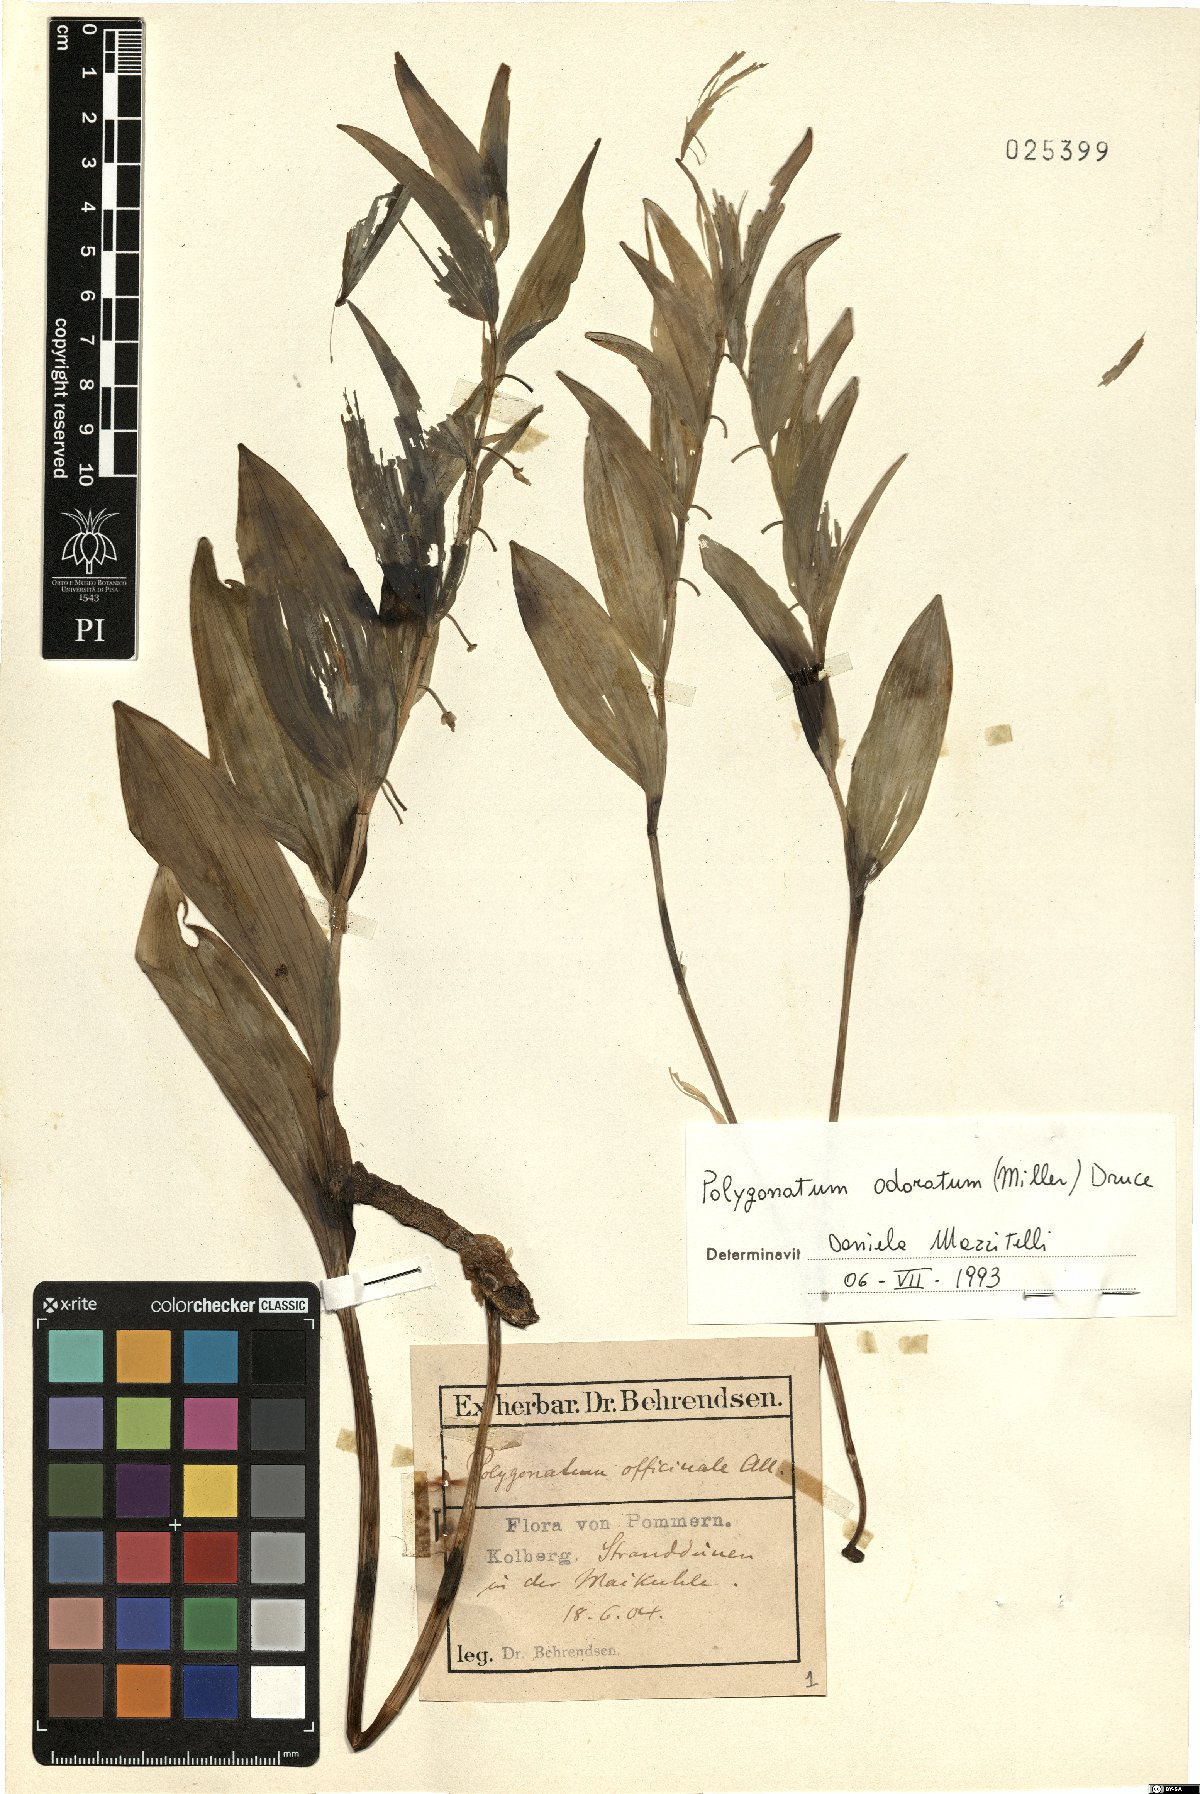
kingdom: Plantae
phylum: Tracheophyta
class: Liliopsida
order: Asparagales
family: Asparagaceae
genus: Polygonatum
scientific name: Polygonatum odoratum
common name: Angular solomon's-seal
